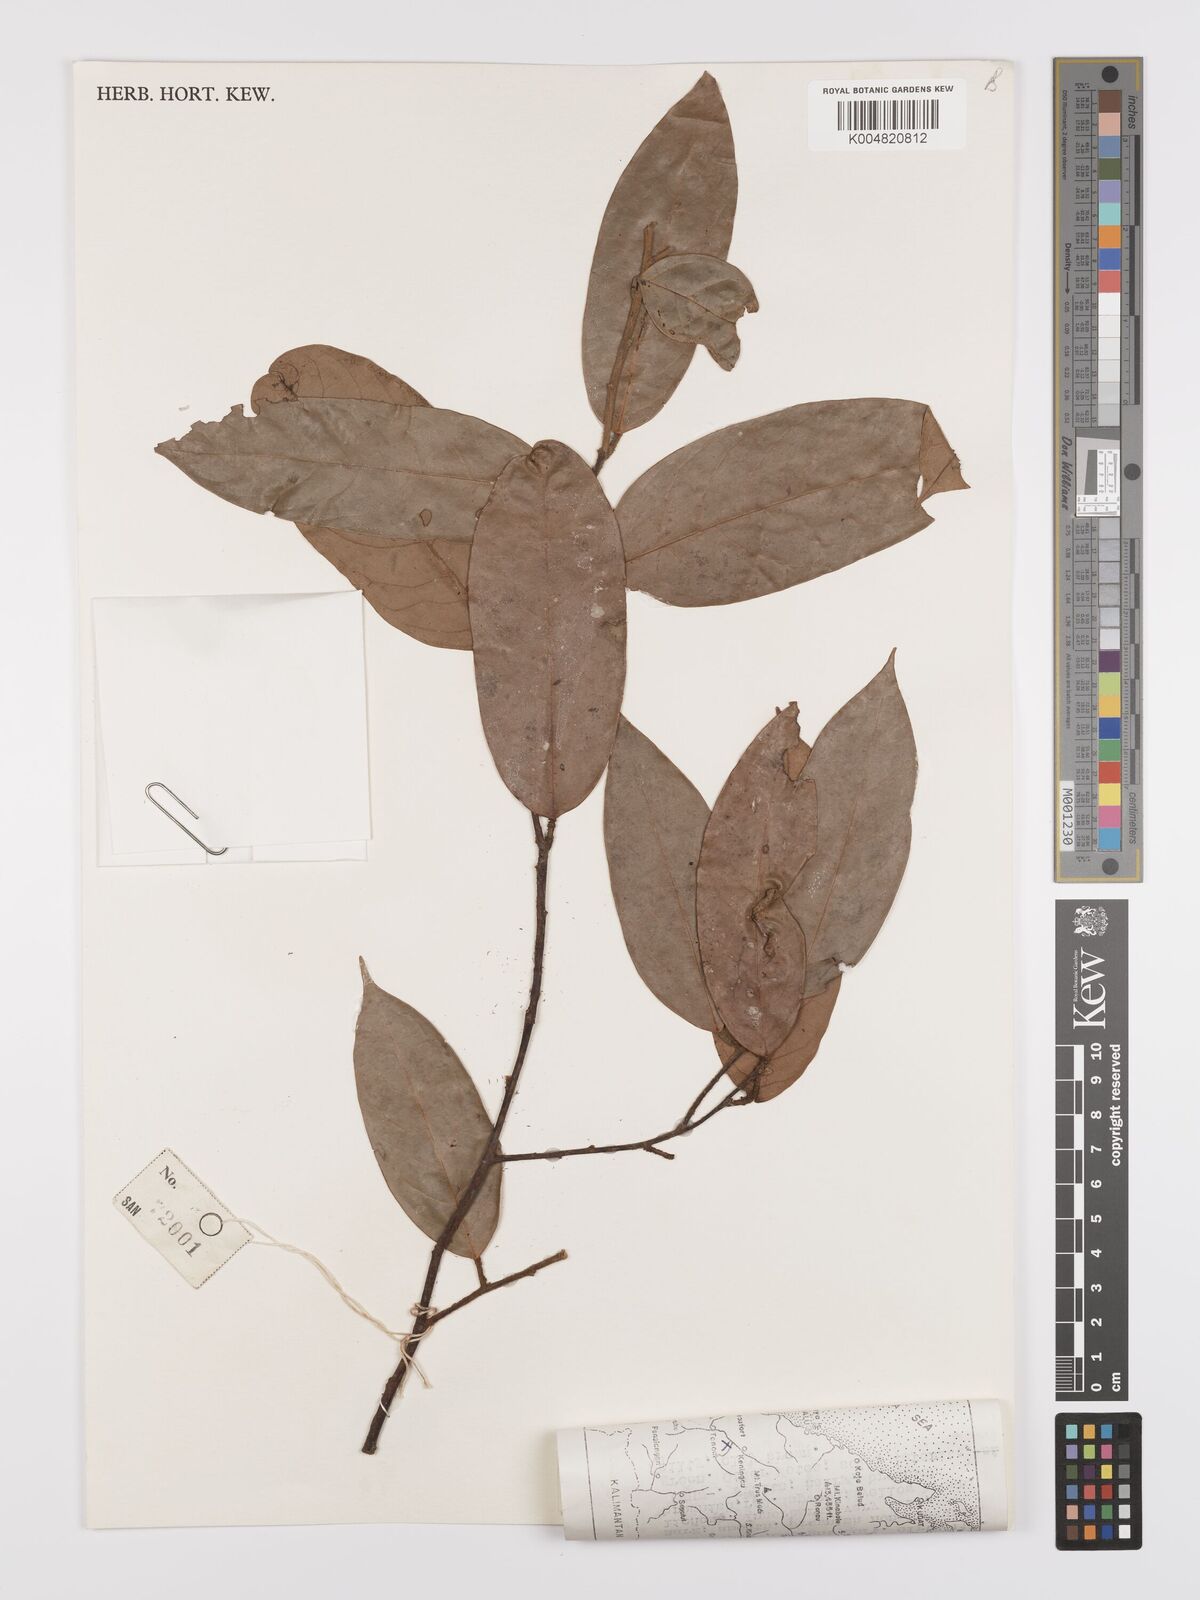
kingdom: Plantae
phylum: Tracheophyta
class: Magnoliopsida
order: Oxalidales
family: Connaraceae
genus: Ellipanthus
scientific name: Ellipanthus
